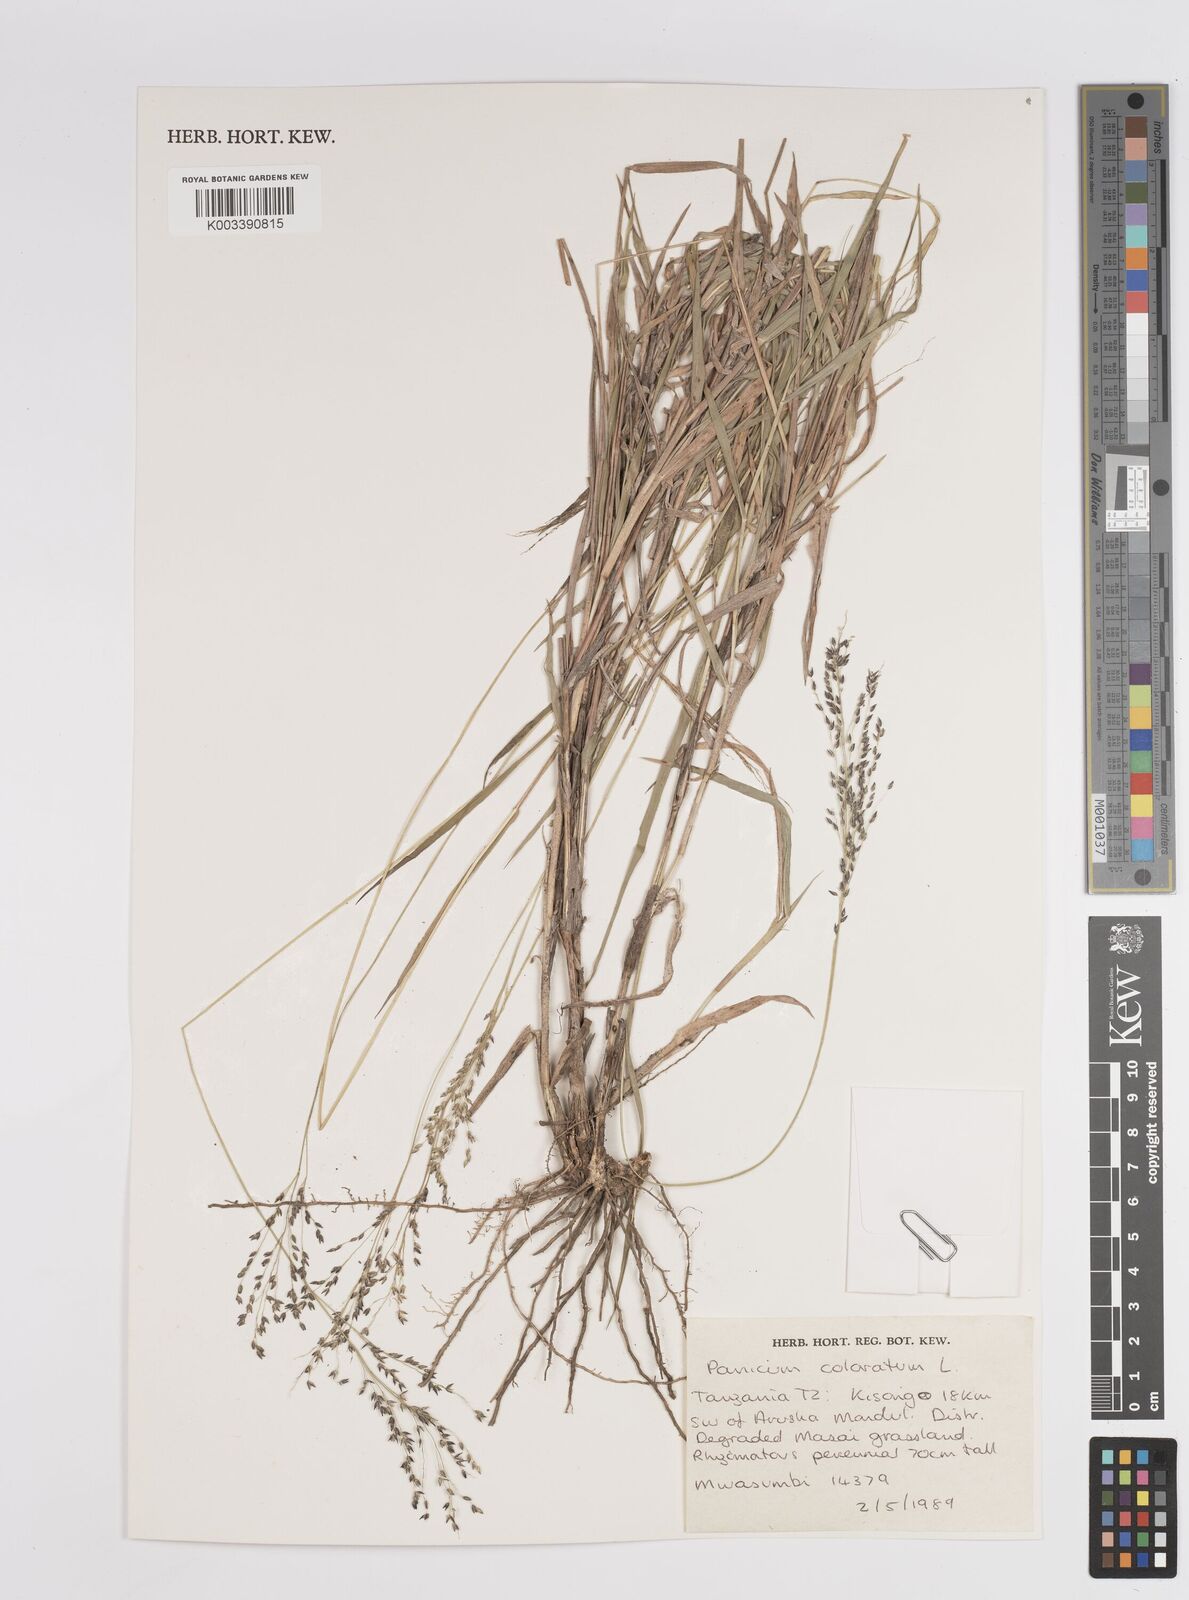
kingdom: Plantae
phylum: Tracheophyta
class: Liliopsida
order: Poales
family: Poaceae
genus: Panicum
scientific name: Panicum coloratum
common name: Kleingrass
